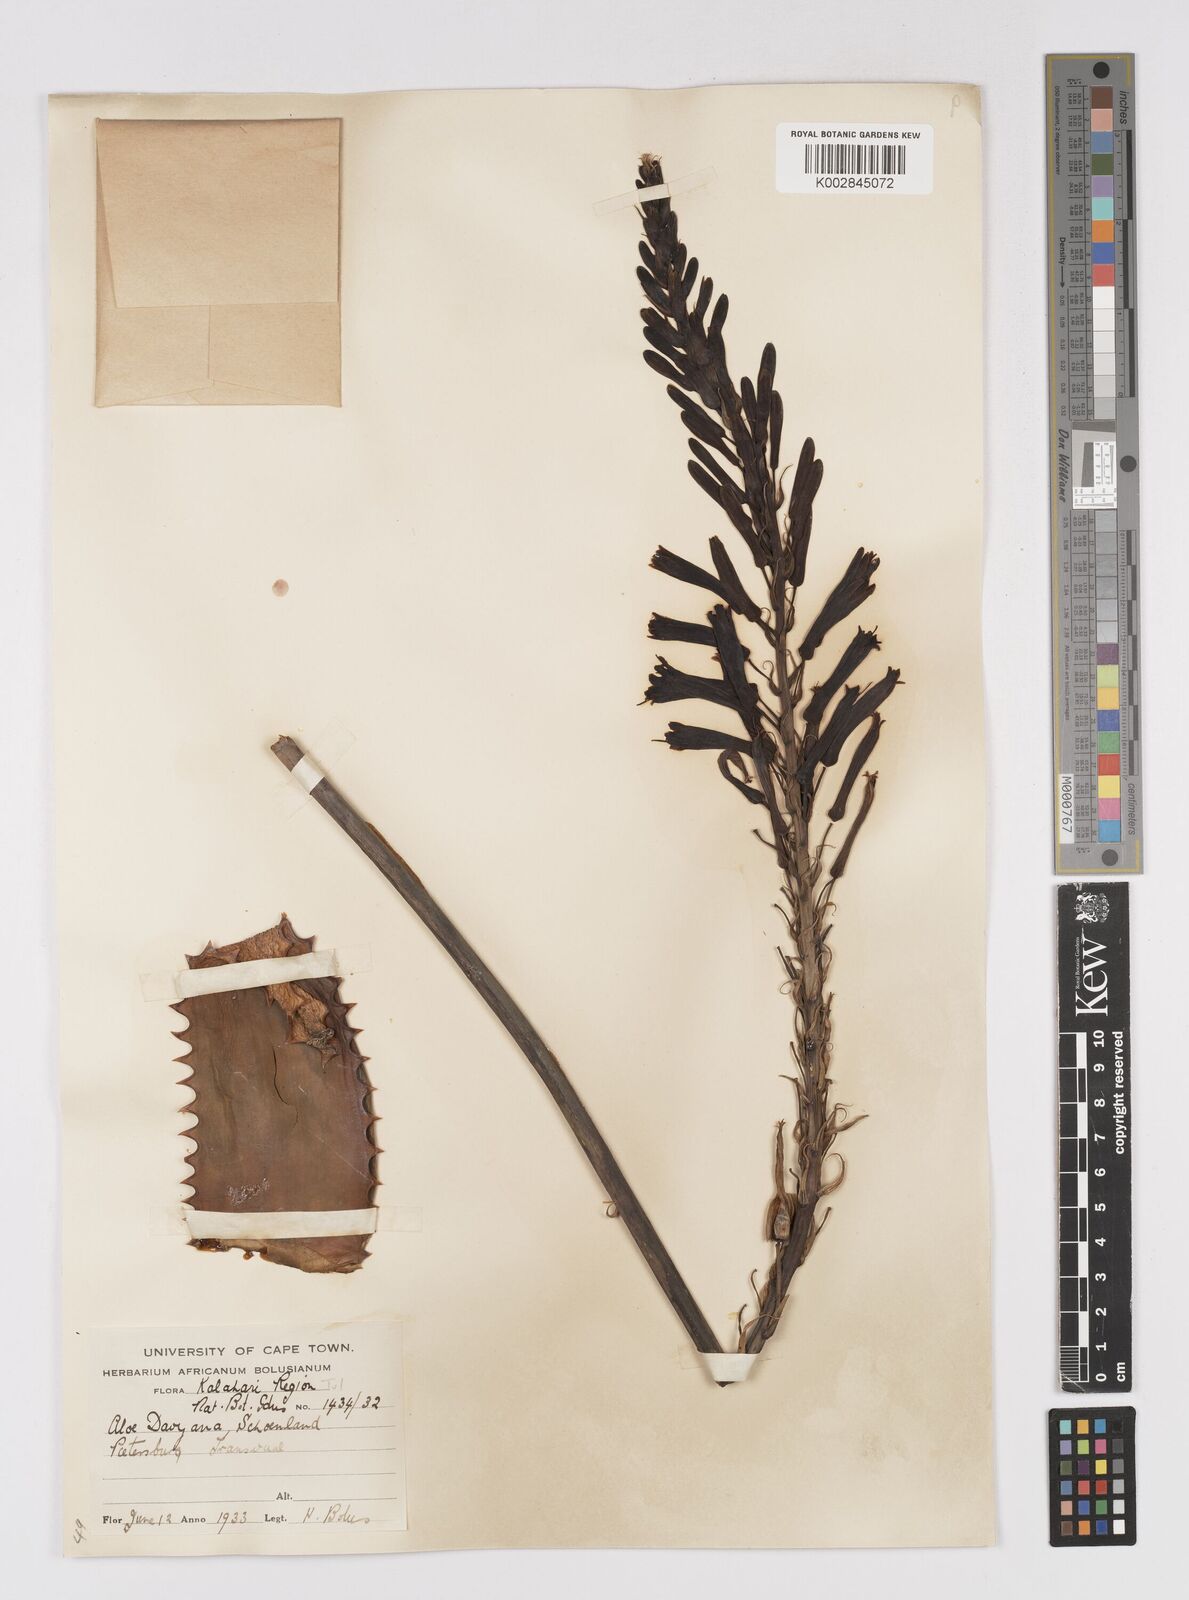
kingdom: Plantae
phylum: Tracheophyta
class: Liliopsida
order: Asparagales
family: Asphodelaceae
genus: Aloe
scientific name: Aloe davyana
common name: Spotted aloe
